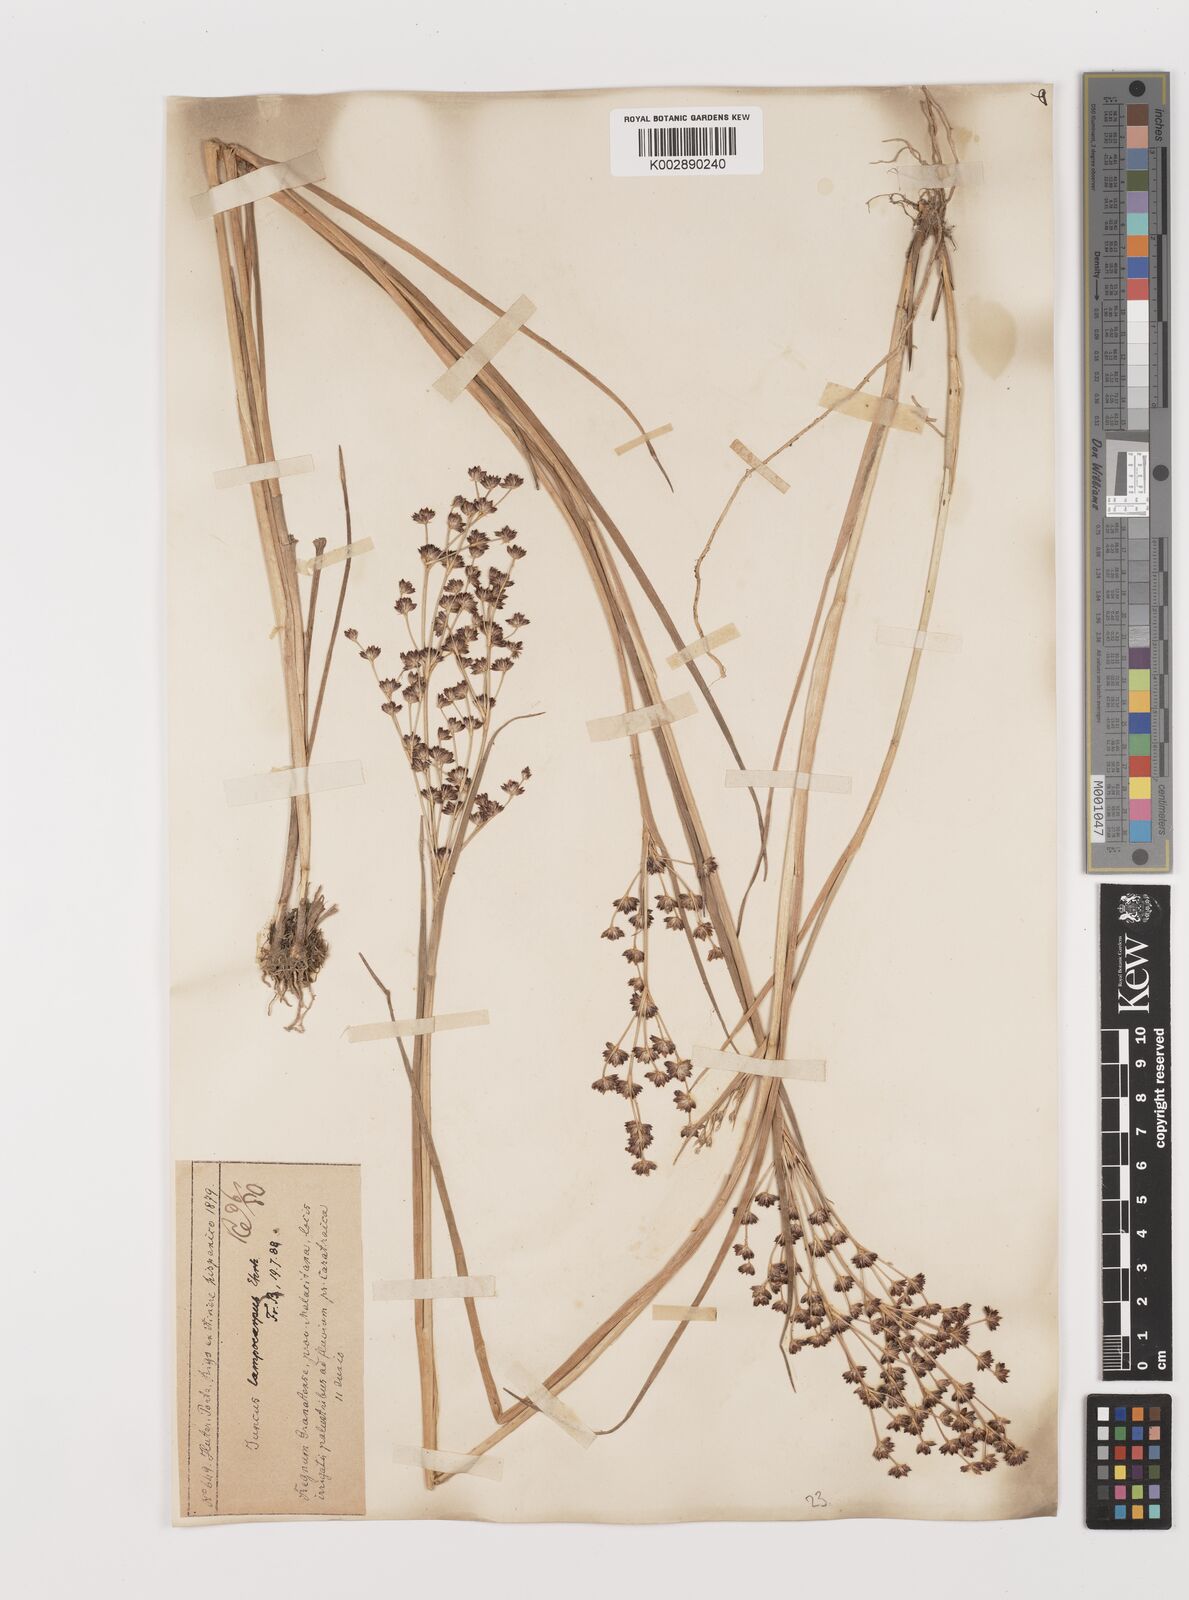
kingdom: Plantae
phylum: Tracheophyta
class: Liliopsida
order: Poales
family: Juncaceae
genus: Juncus
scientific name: Juncus articulatus
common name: Jointed rush
